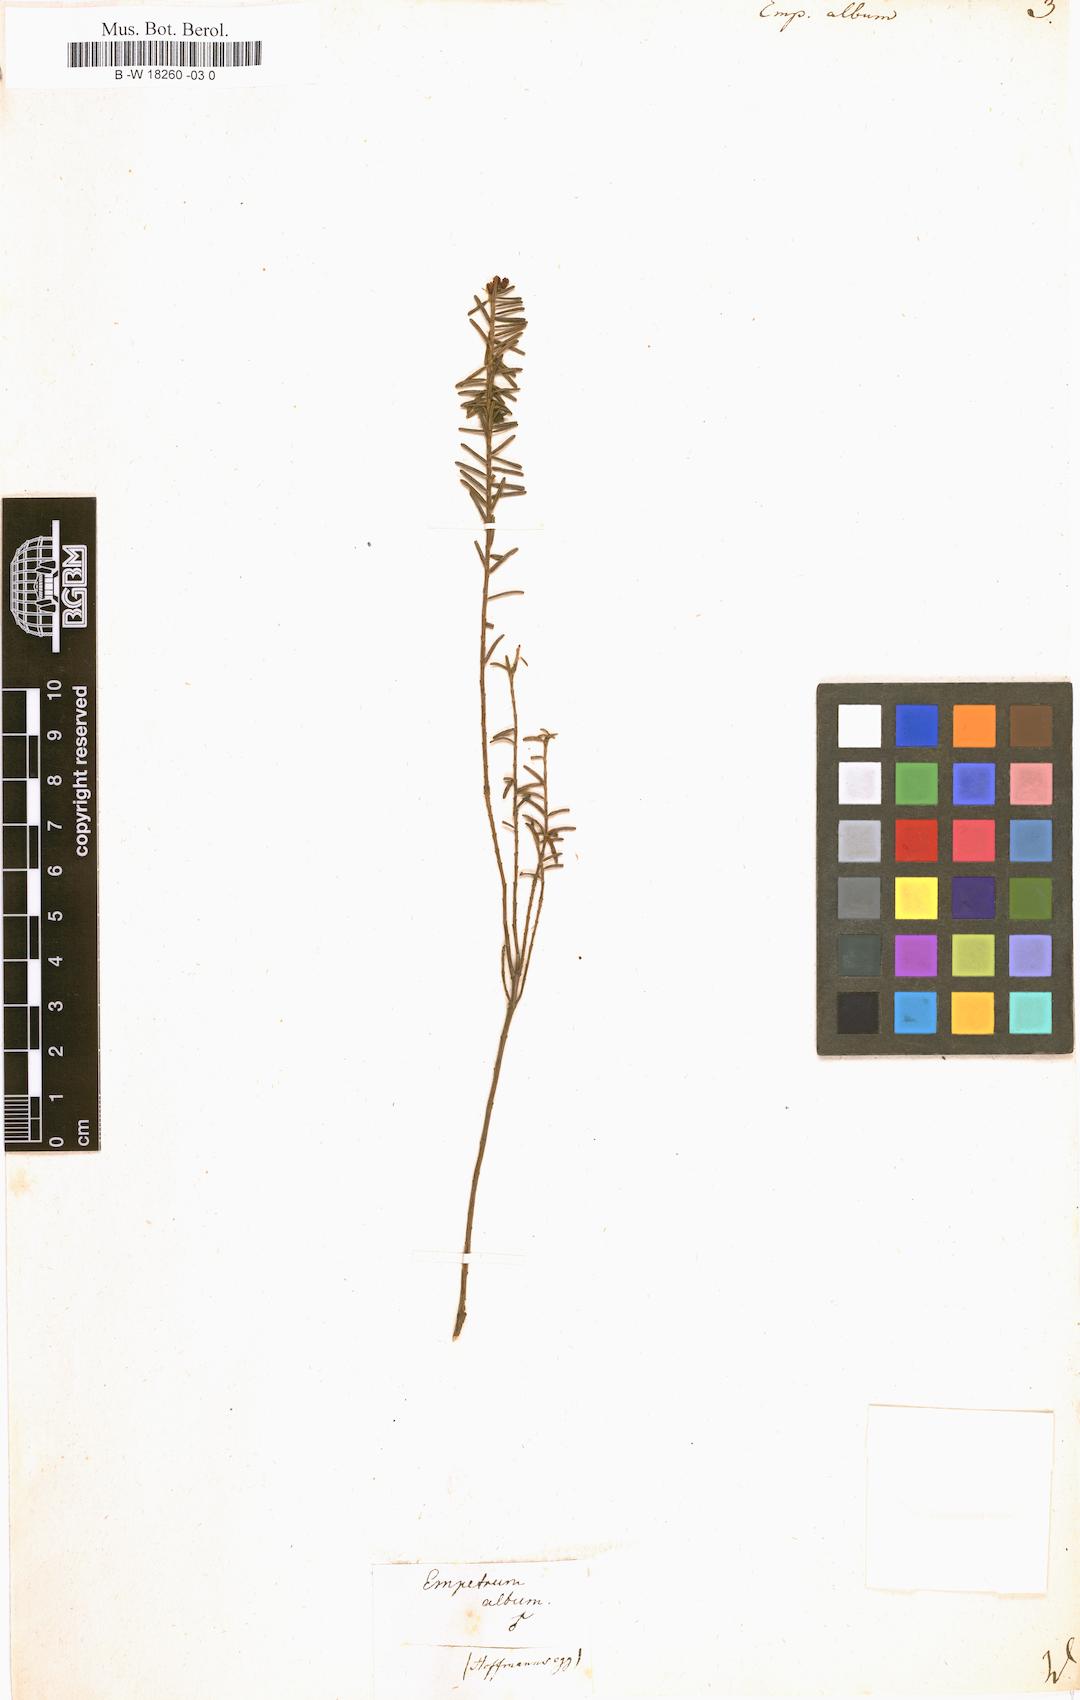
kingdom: Plantae
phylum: Tracheophyta
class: Magnoliopsida
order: Ericales
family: Ericaceae
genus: Corema
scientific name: Corema album
